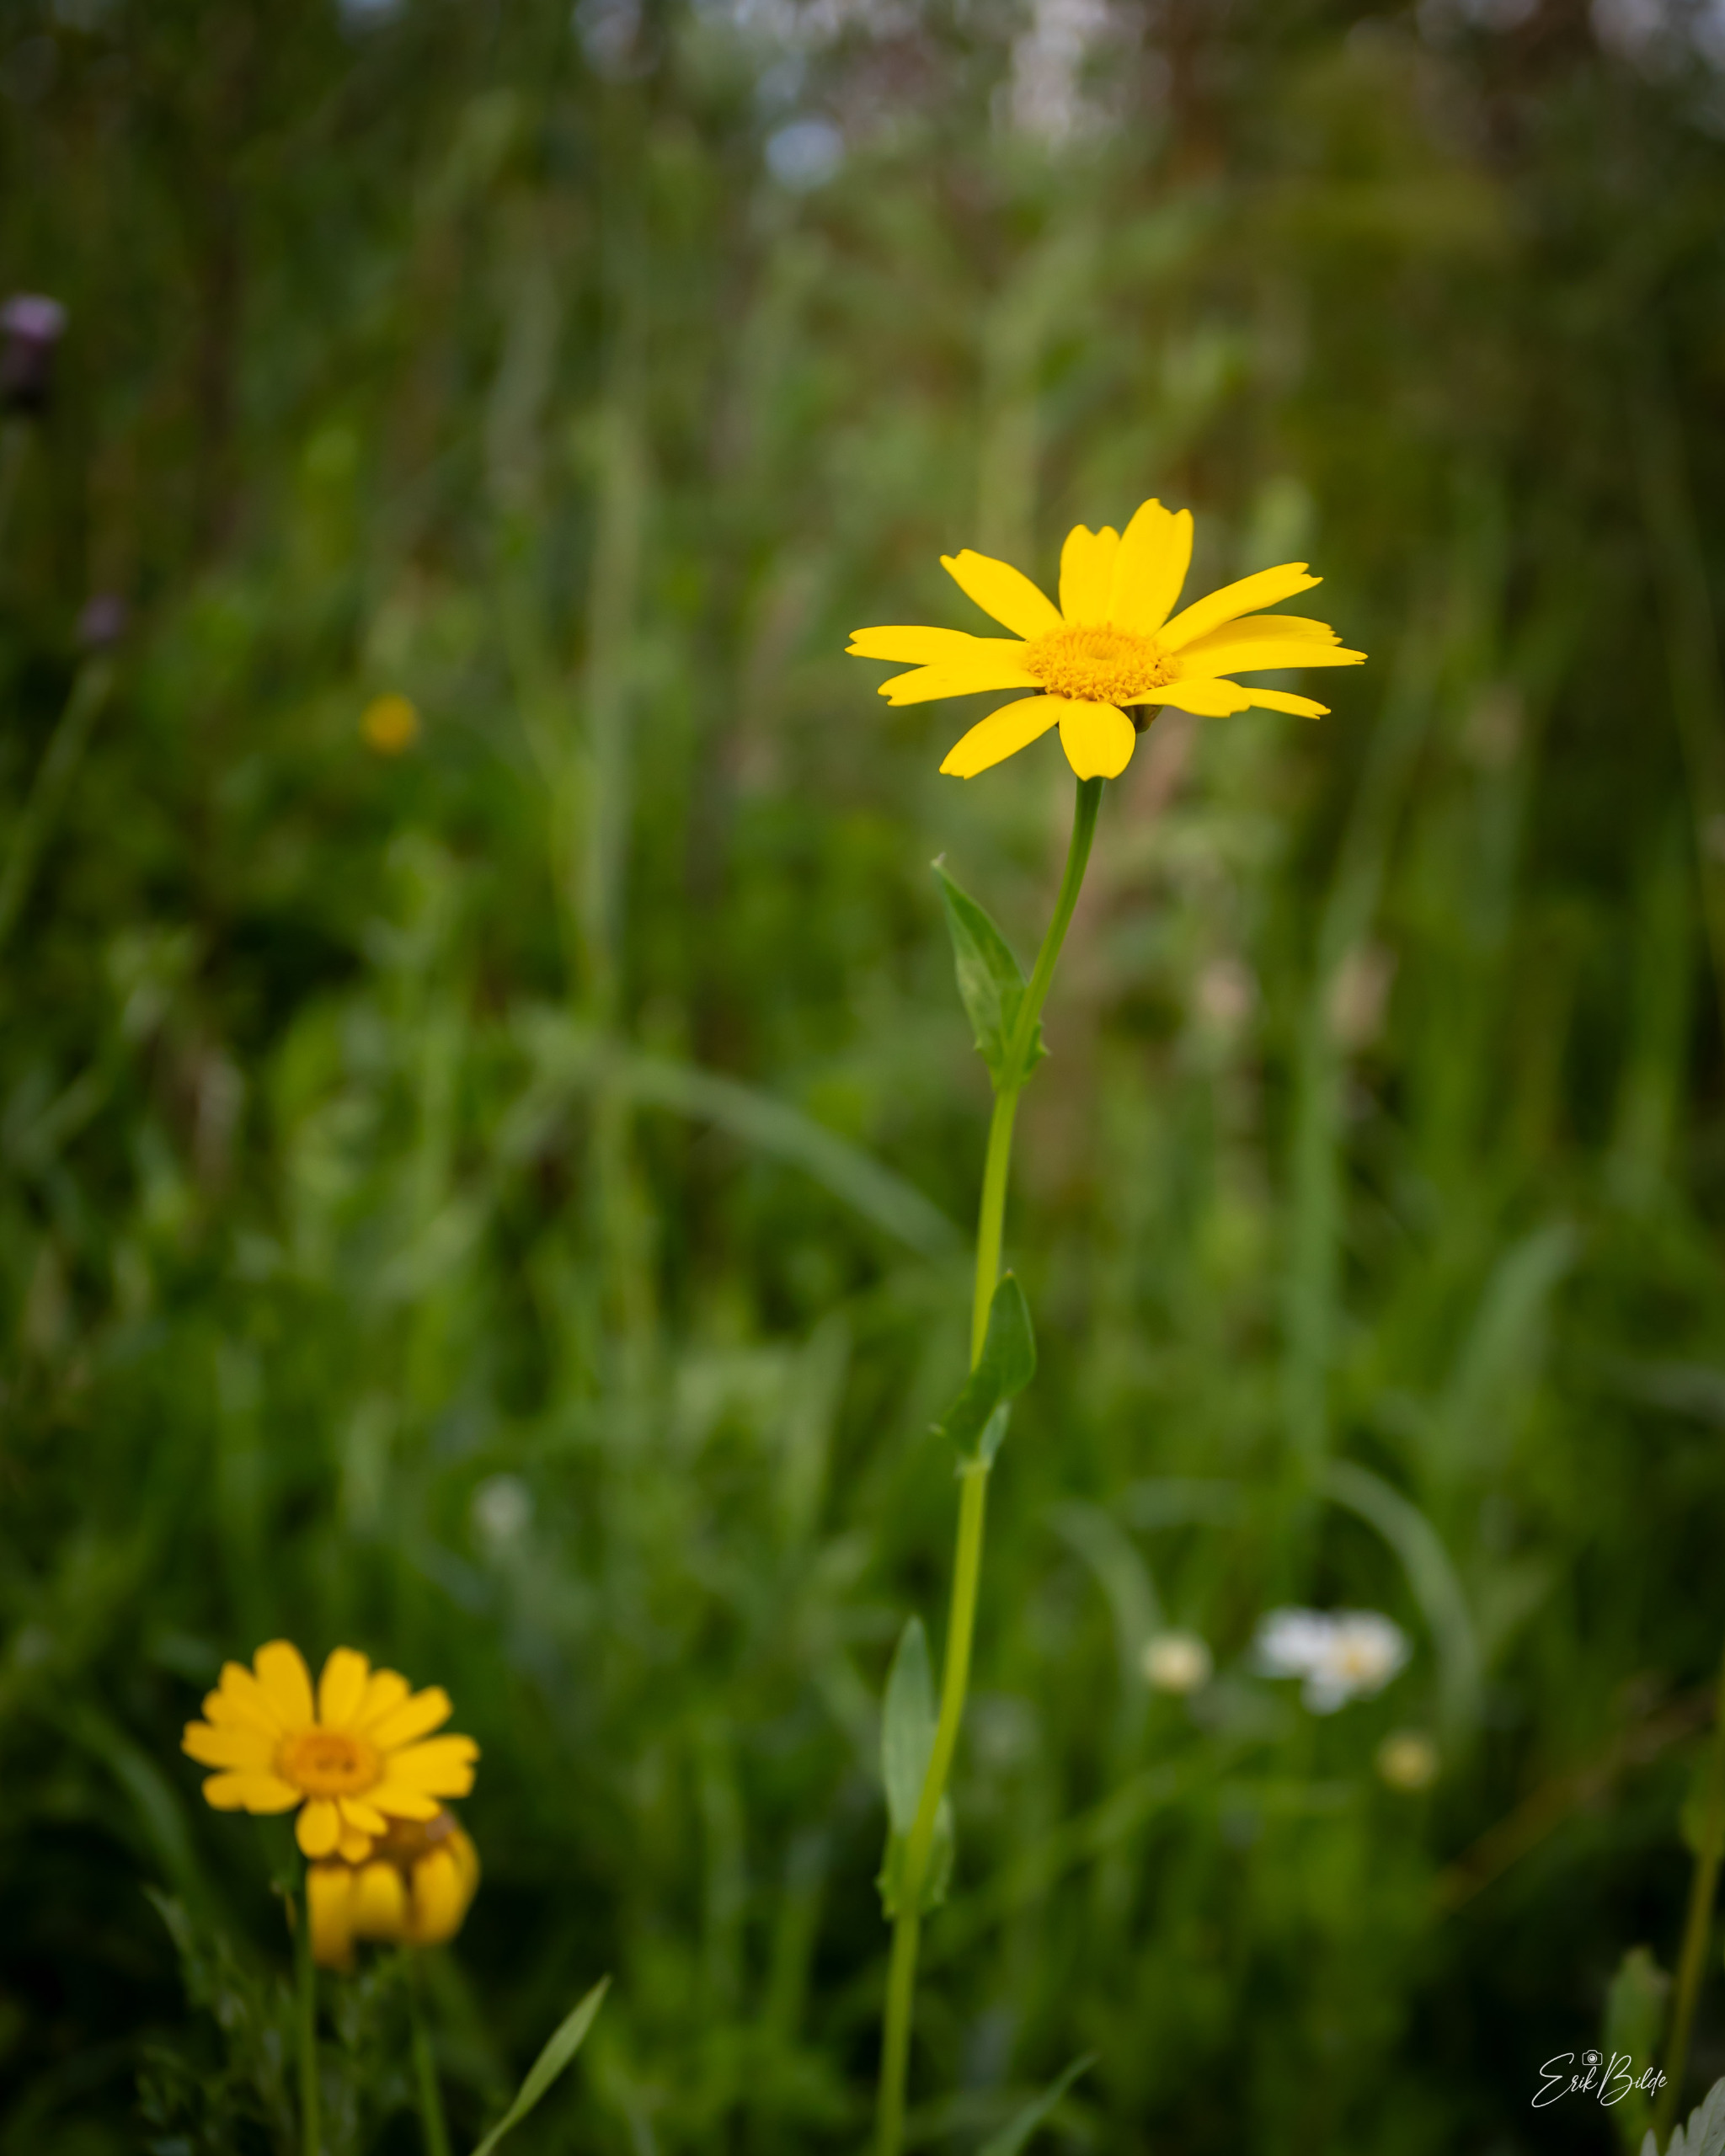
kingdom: Plantae
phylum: Tracheophyta
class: Magnoliopsida
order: Asterales
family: Asteraceae
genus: Glebionis
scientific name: Glebionis segetum
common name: Gul okseøje
